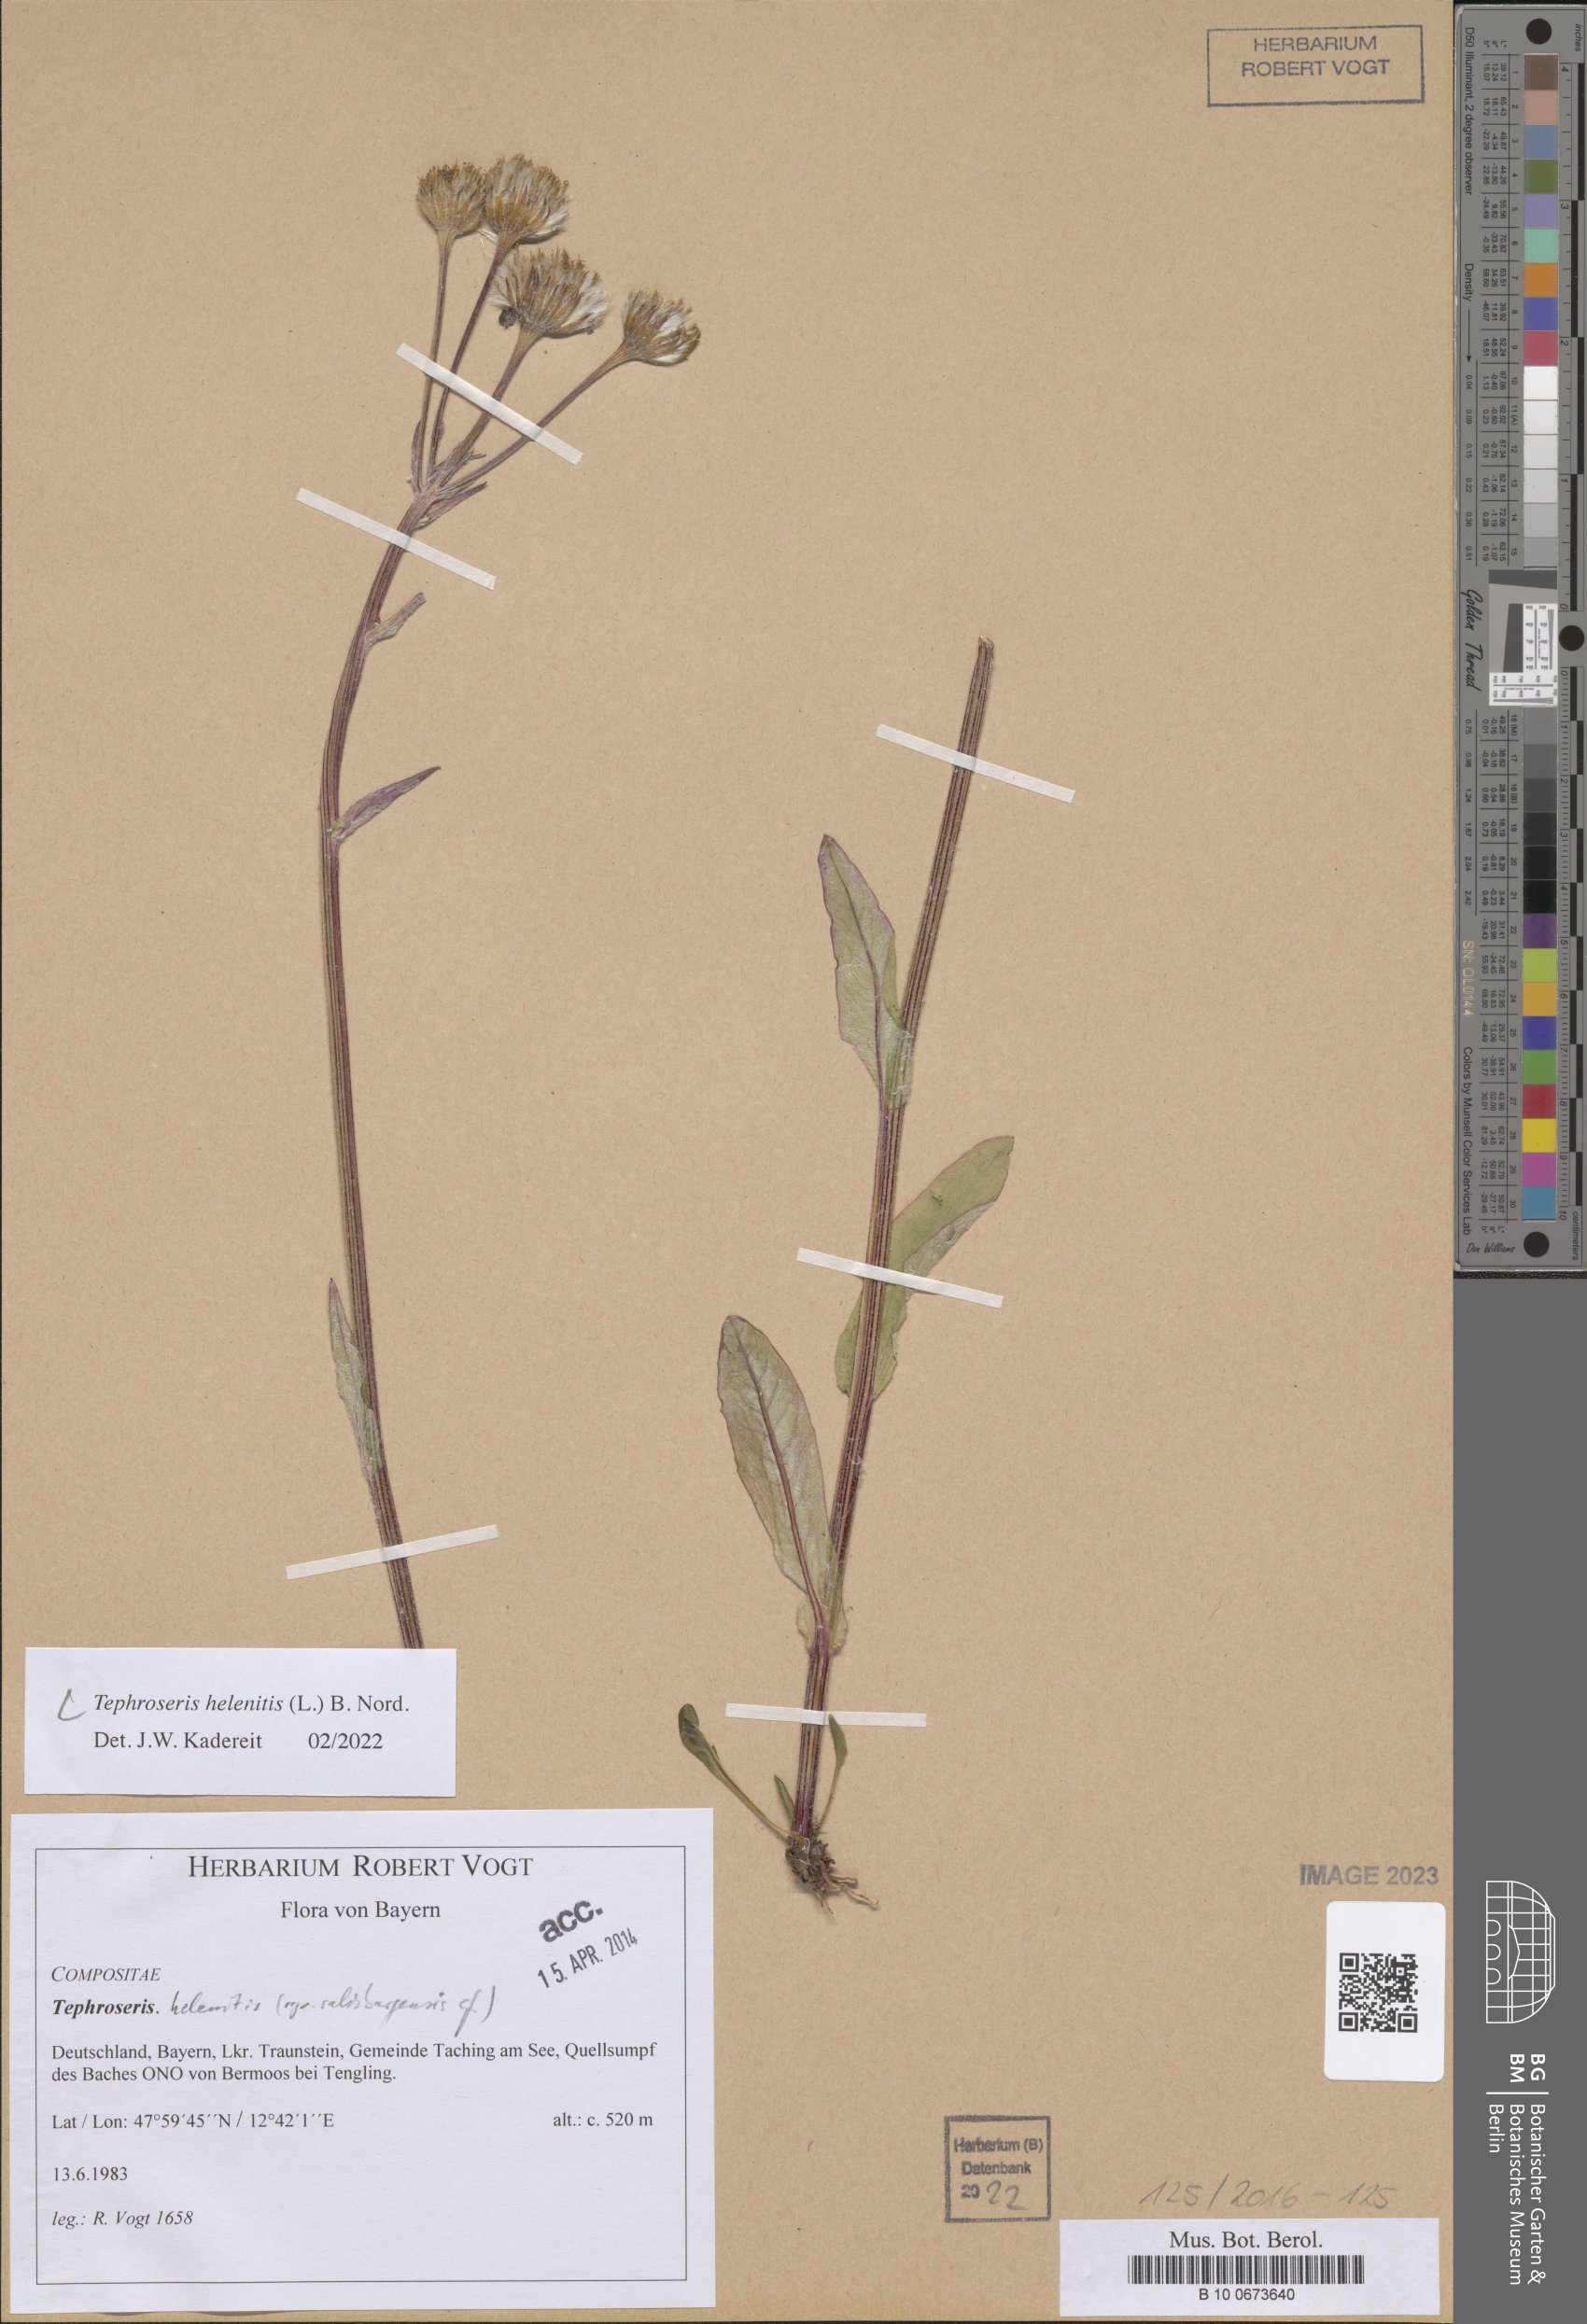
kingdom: Plantae
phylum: Tracheophyta
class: Magnoliopsida
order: Asterales
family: Asteraceae
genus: Tephroseris
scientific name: Tephroseris helenitis
